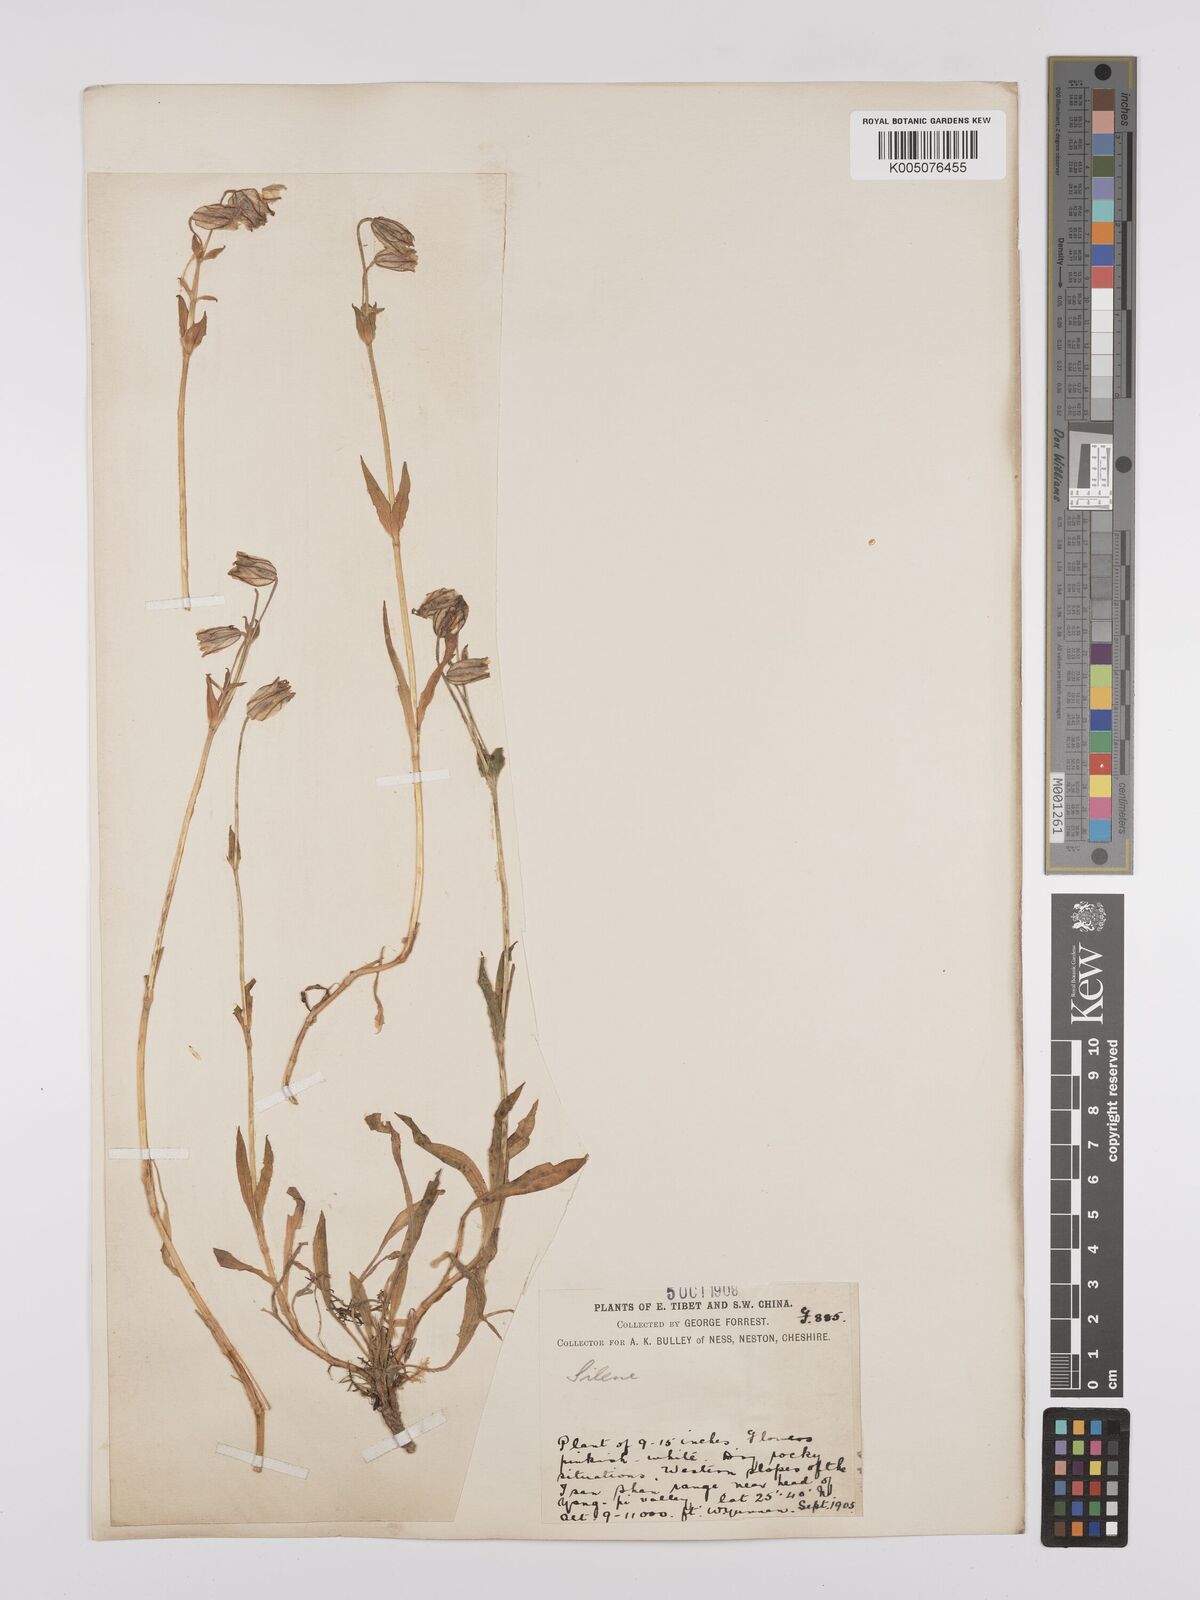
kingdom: Plantae
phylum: Tracheophyta
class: Magnoliopsida
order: Caryophyllales
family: Caryophyllaceae
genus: Silene
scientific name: Silene
